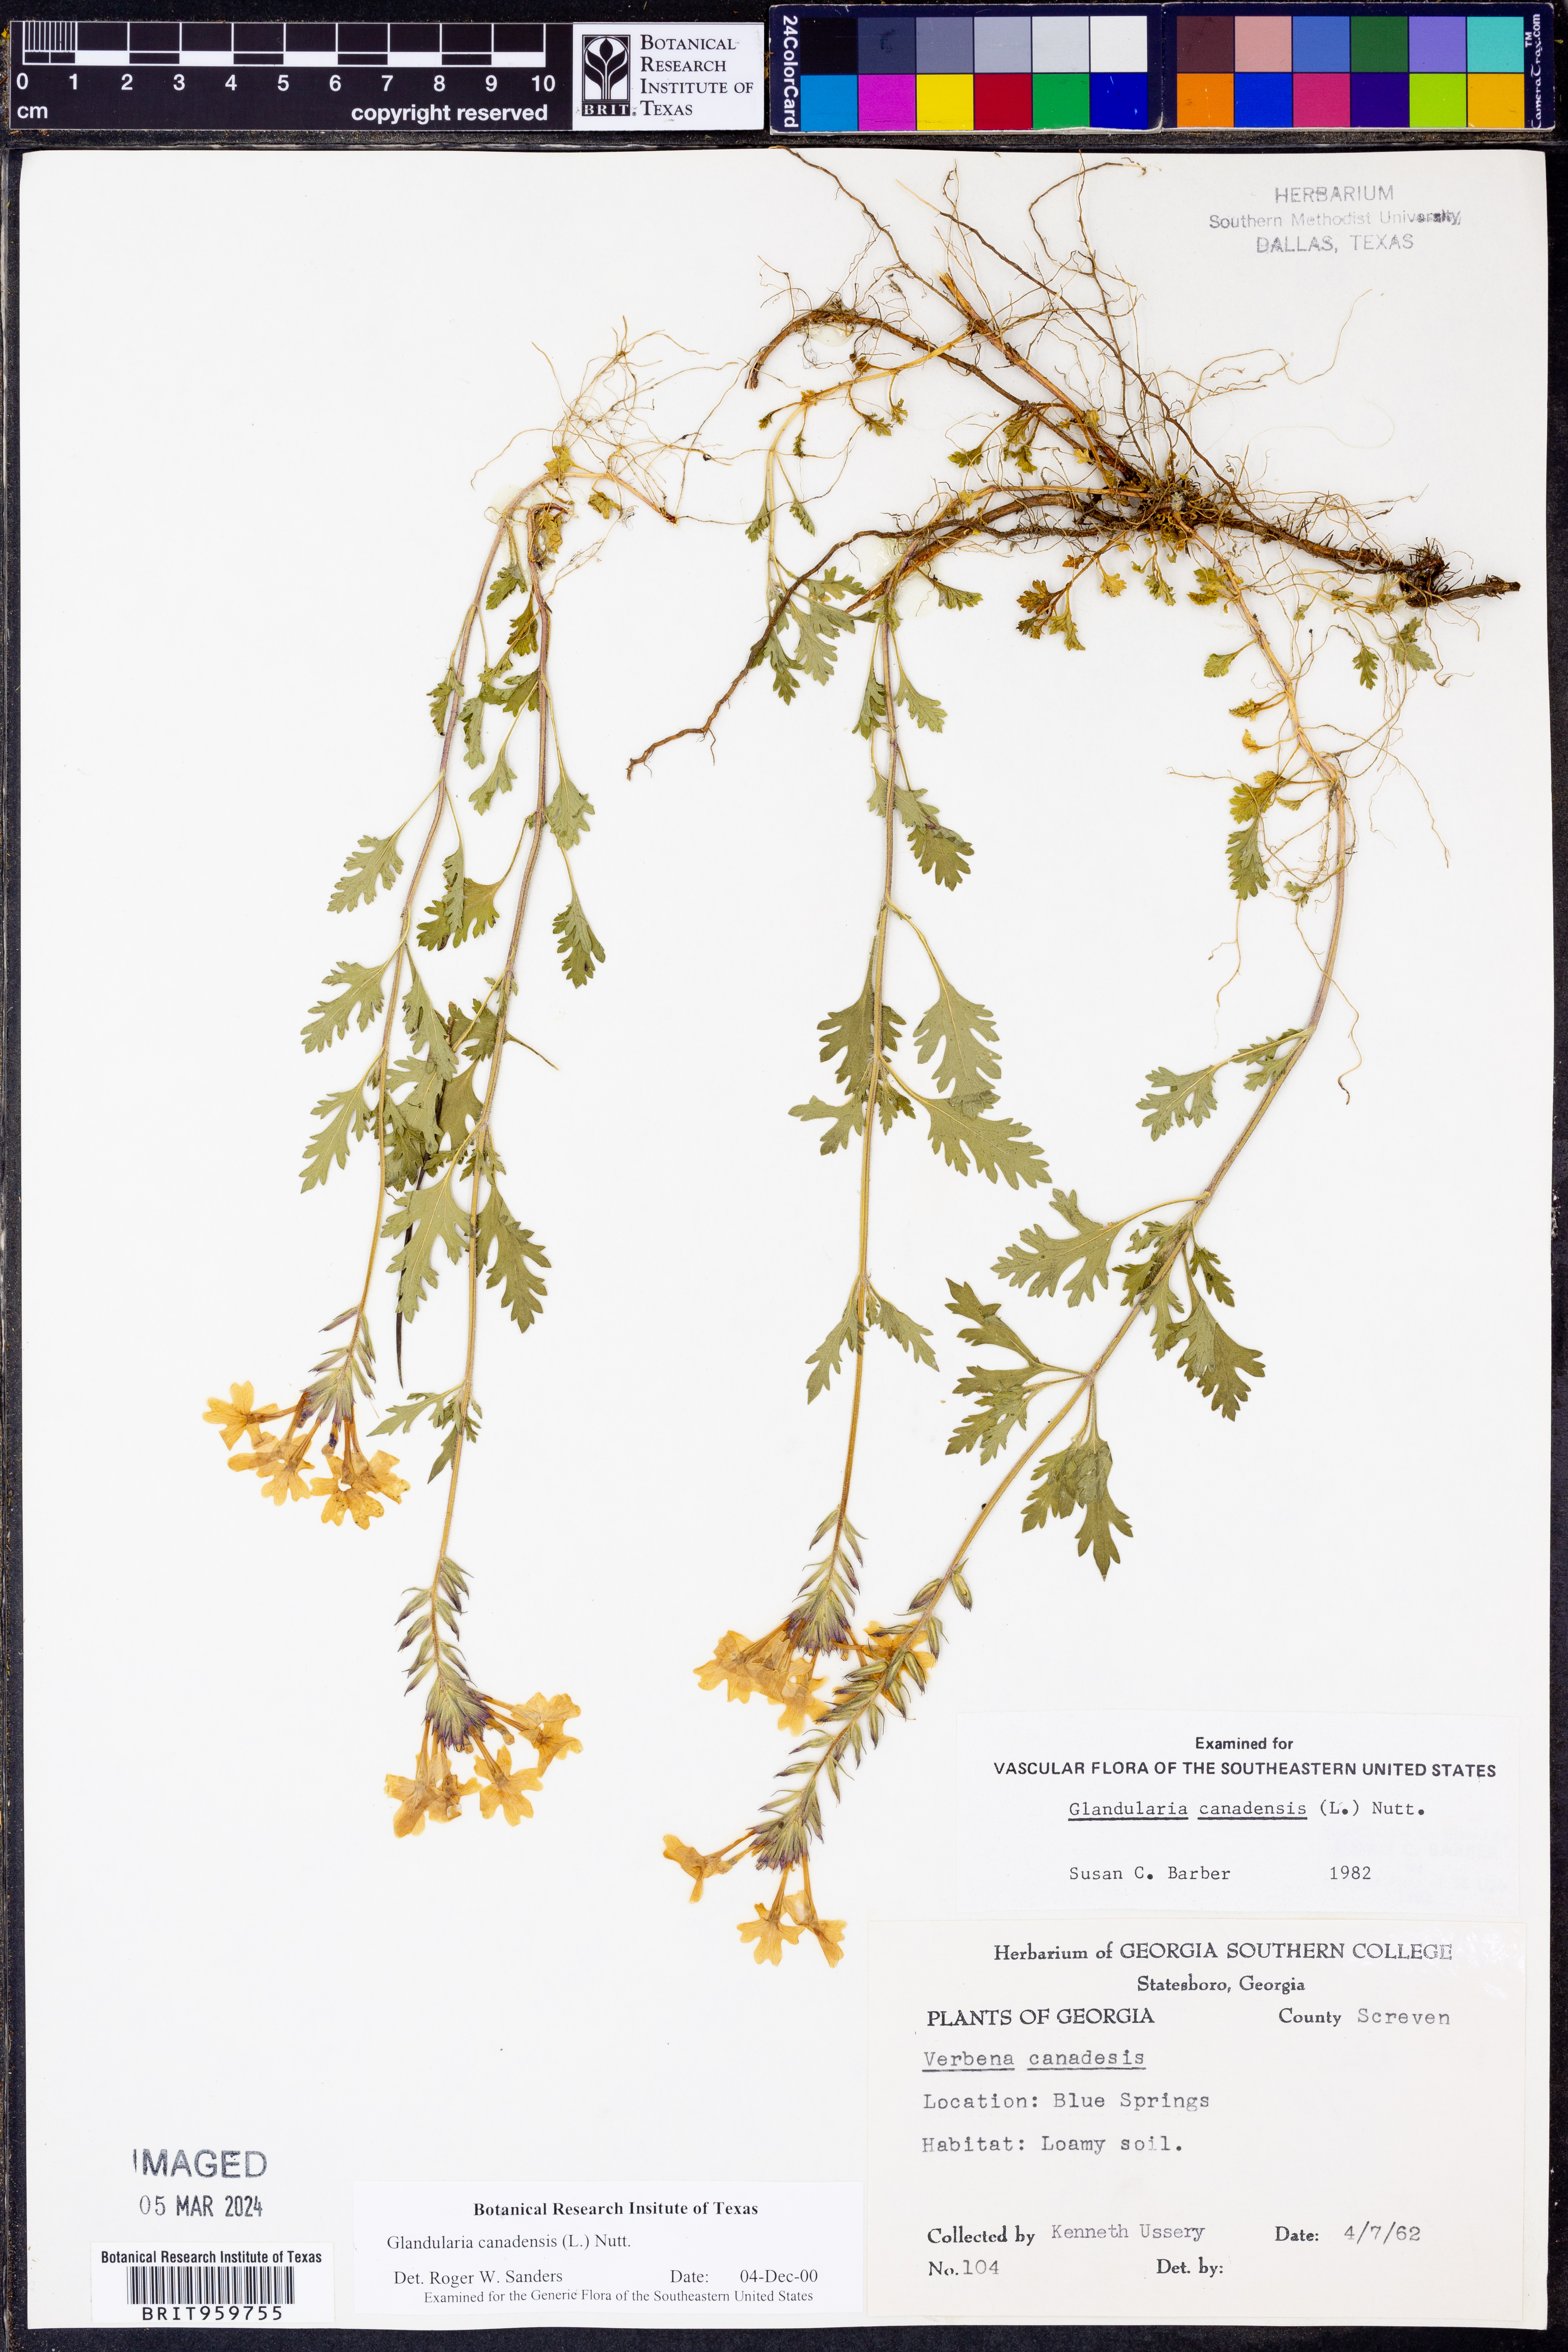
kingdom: Plantae
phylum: Tracheophyta
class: Magnoliopsida
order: Lamiales
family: Verbenaceae
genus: Verbena
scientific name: Verbena canadensis
